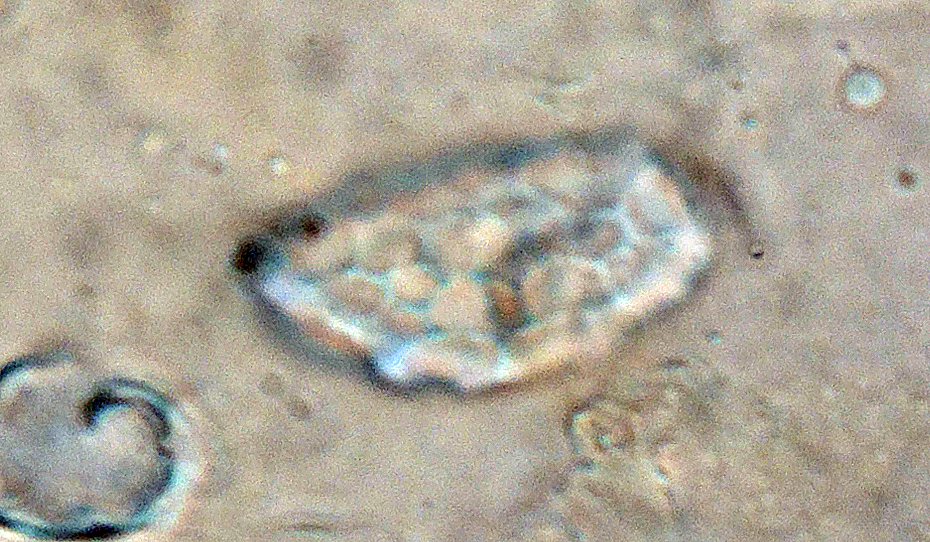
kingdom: Fungi
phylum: Ascomycota
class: Pezizomycetes
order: Pezizales
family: Pyronemataceae
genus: Melastiza
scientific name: Melastiza cornubiensis
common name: mørkrandet rødbæger
